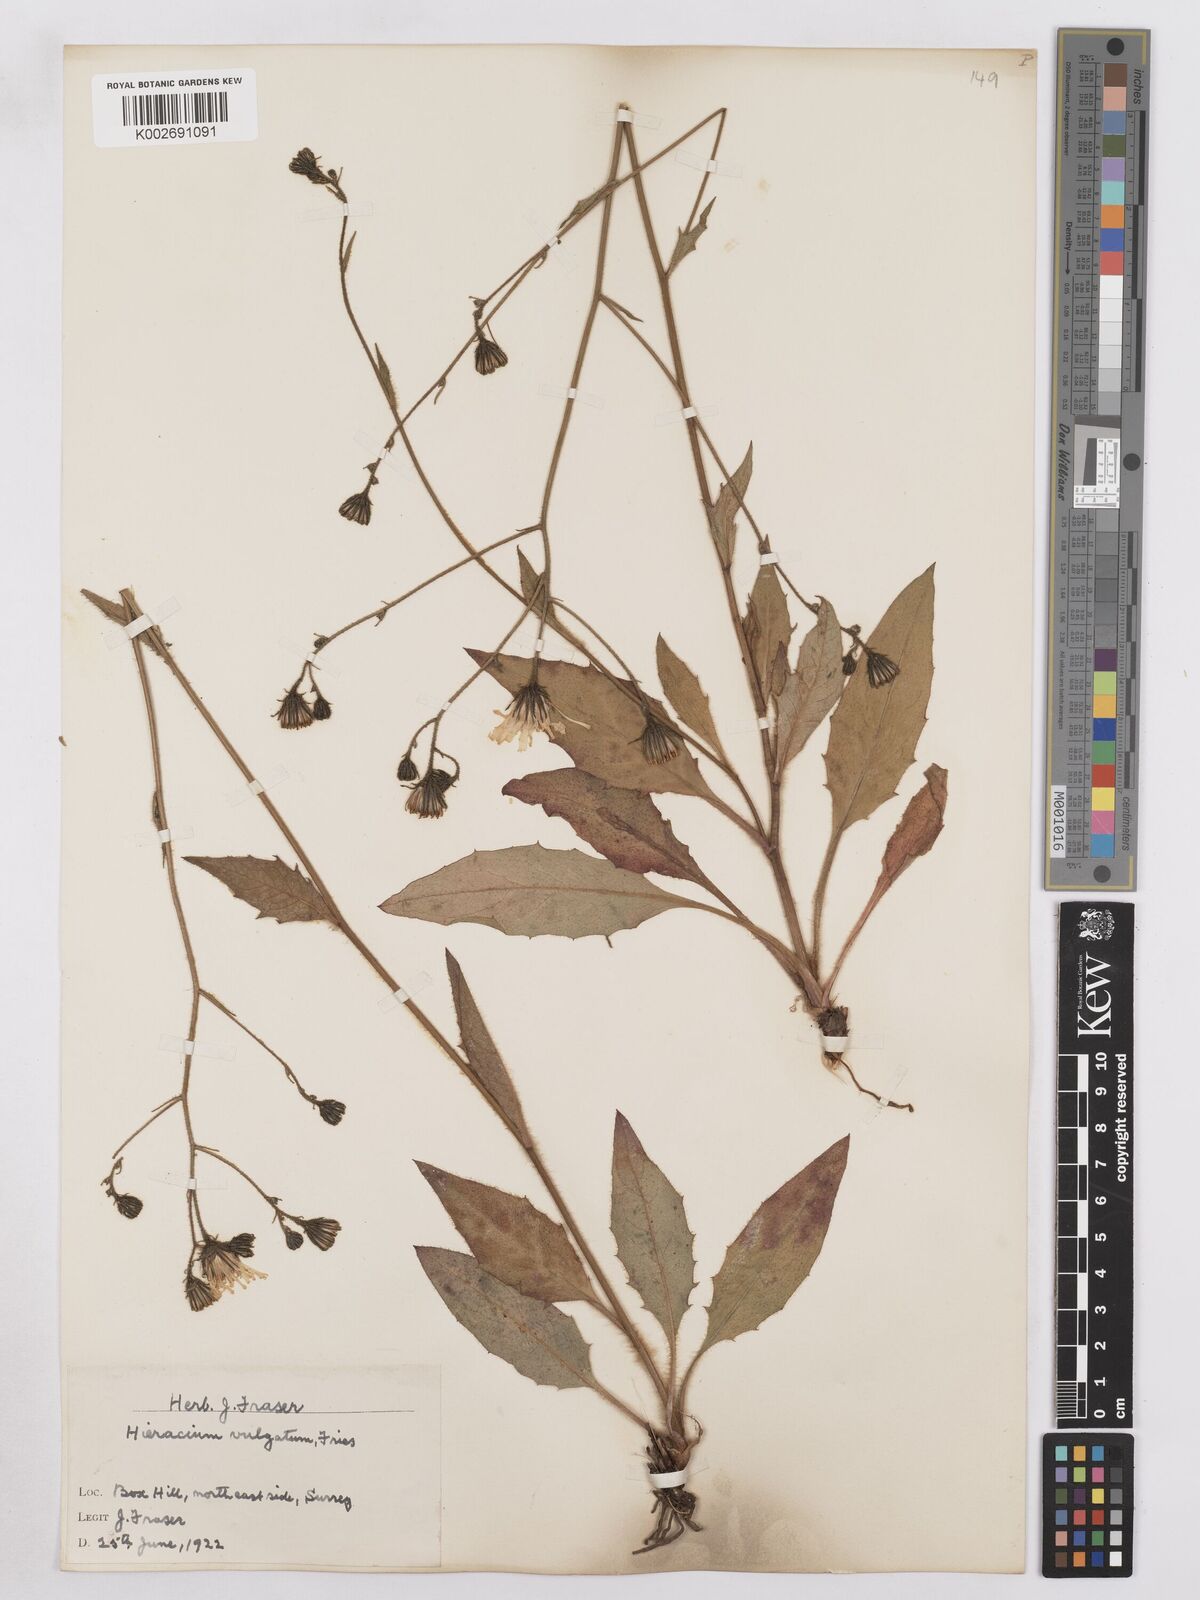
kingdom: Plantae
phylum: Tracheophyta
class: Magnoliopsida
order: Asterales
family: Asteraceae
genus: Hieracium
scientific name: Hieracium lachenalii
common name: Common hawkweed
